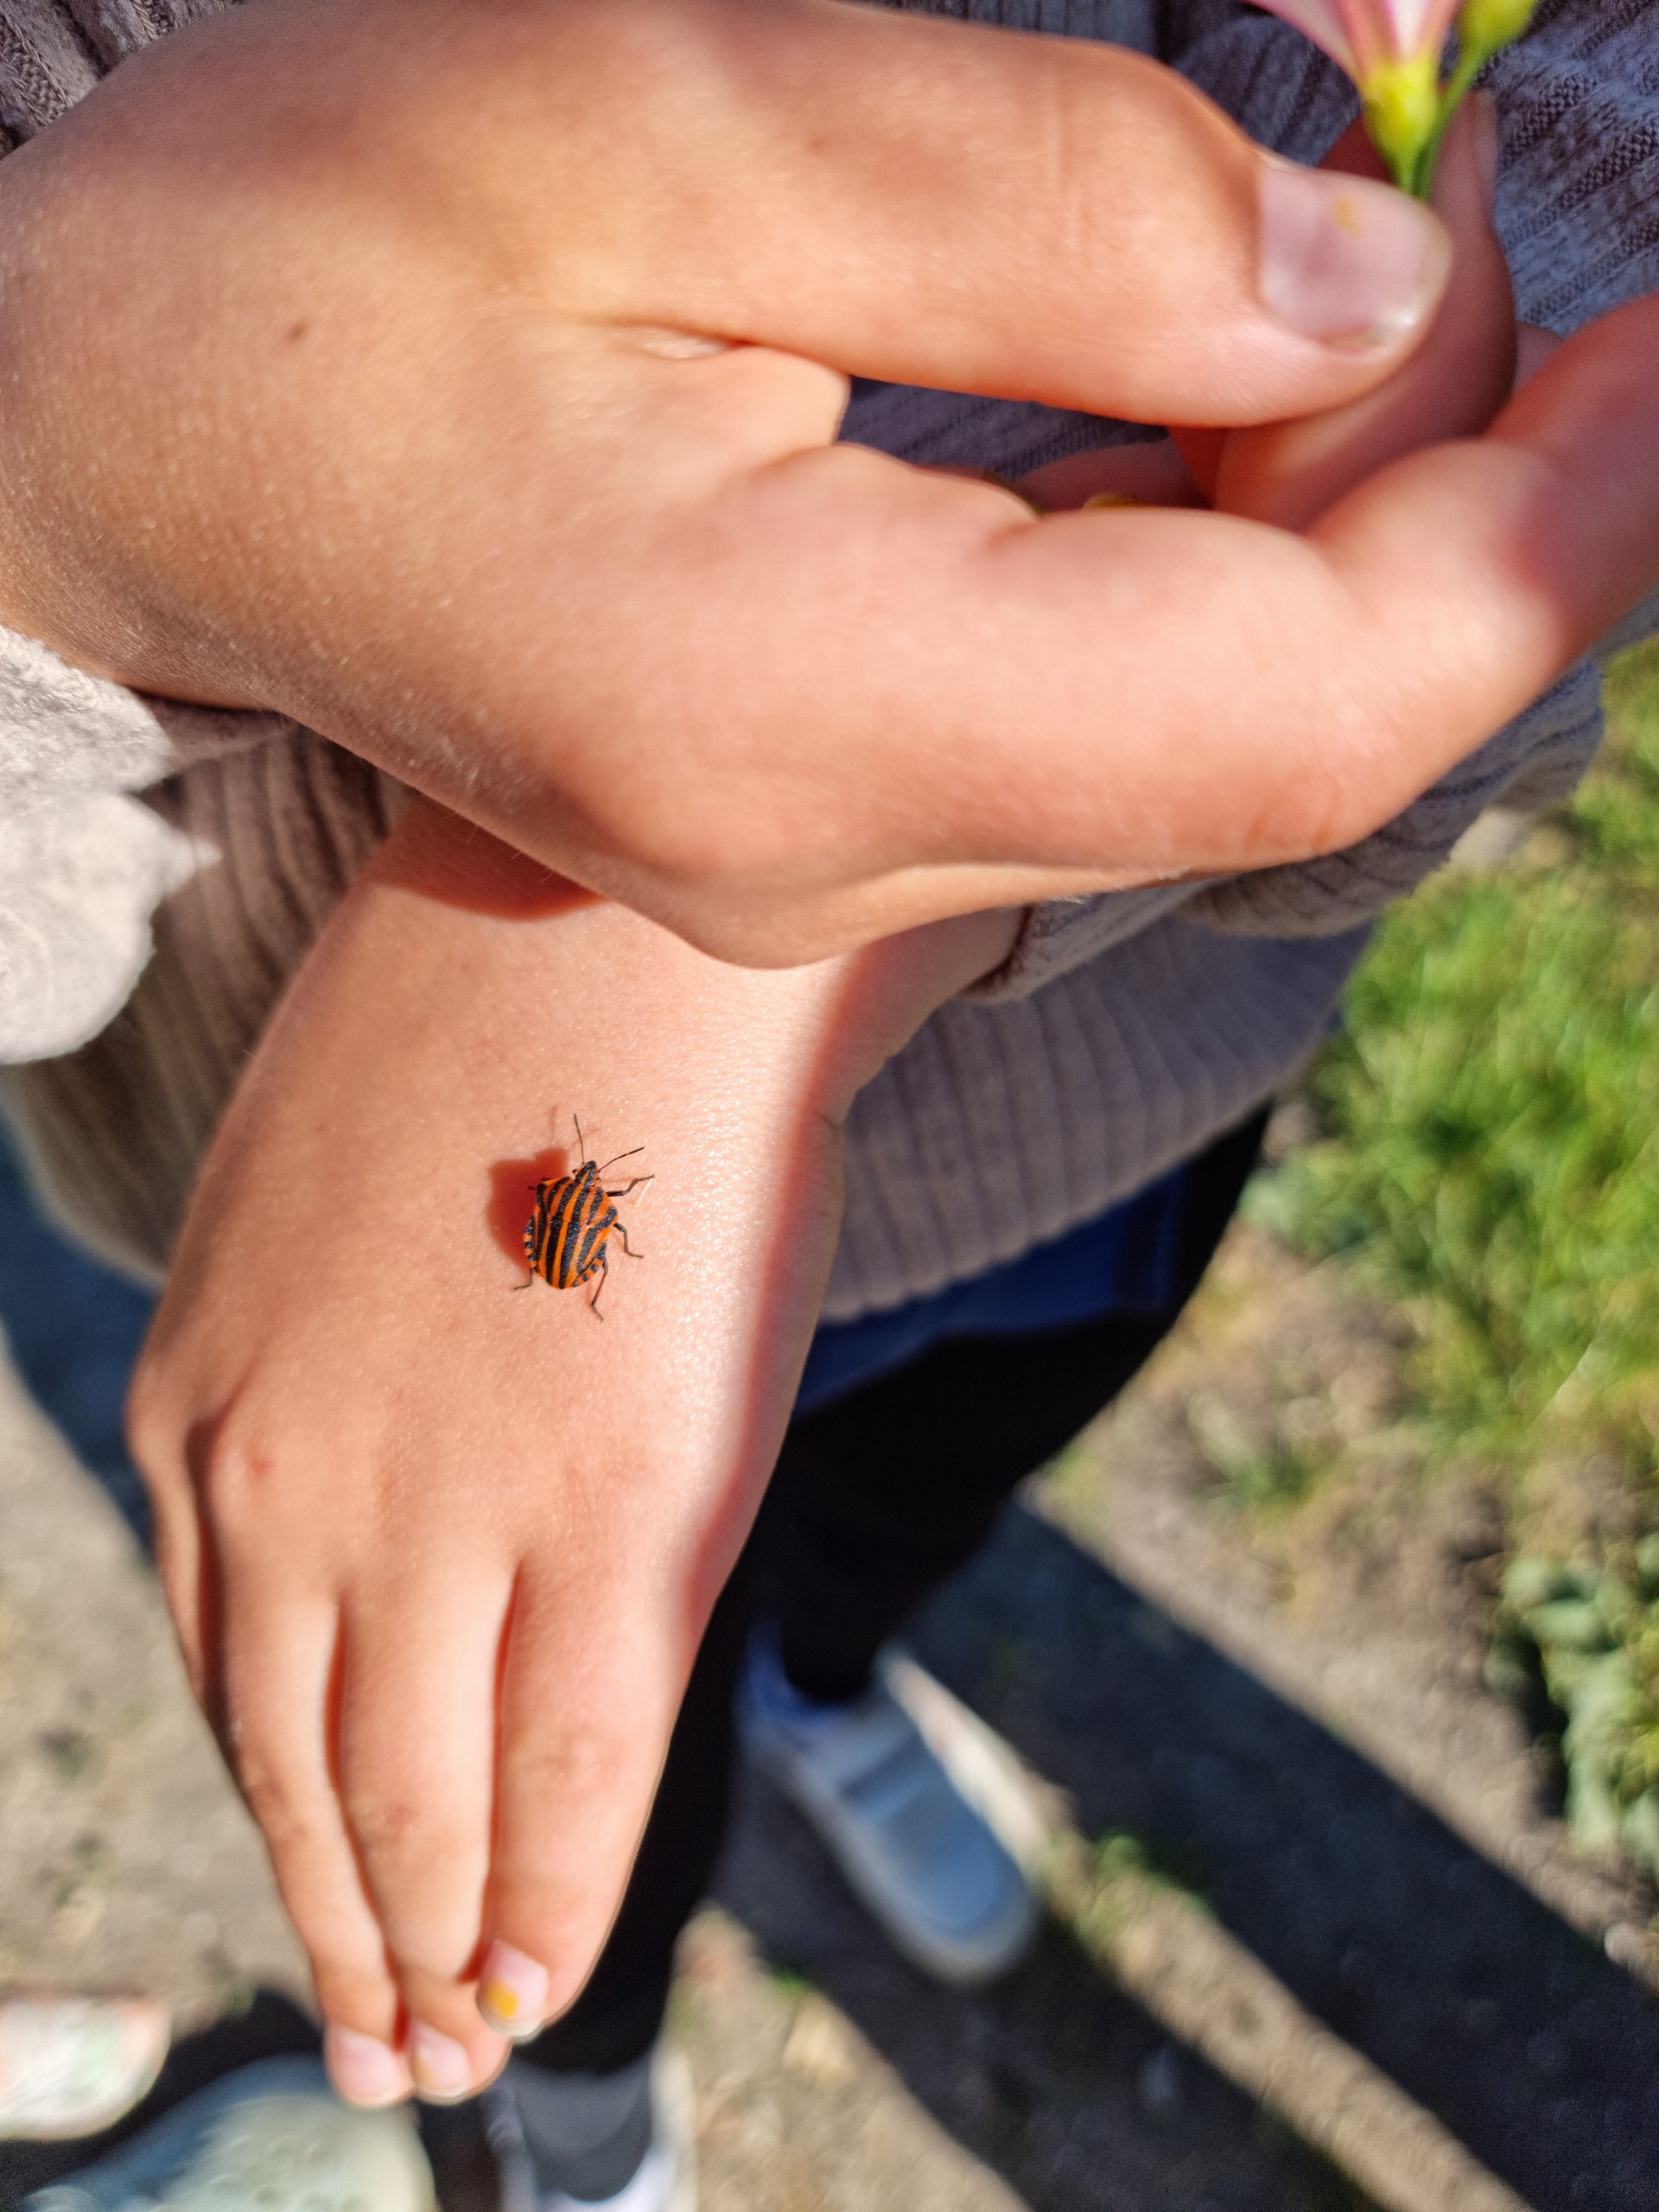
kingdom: Animalia
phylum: Arthropoda
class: Insecta
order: Hemiptera
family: Pentatomidae
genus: Graphosoma
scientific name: Graphosoma italicum
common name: Stribetæge
